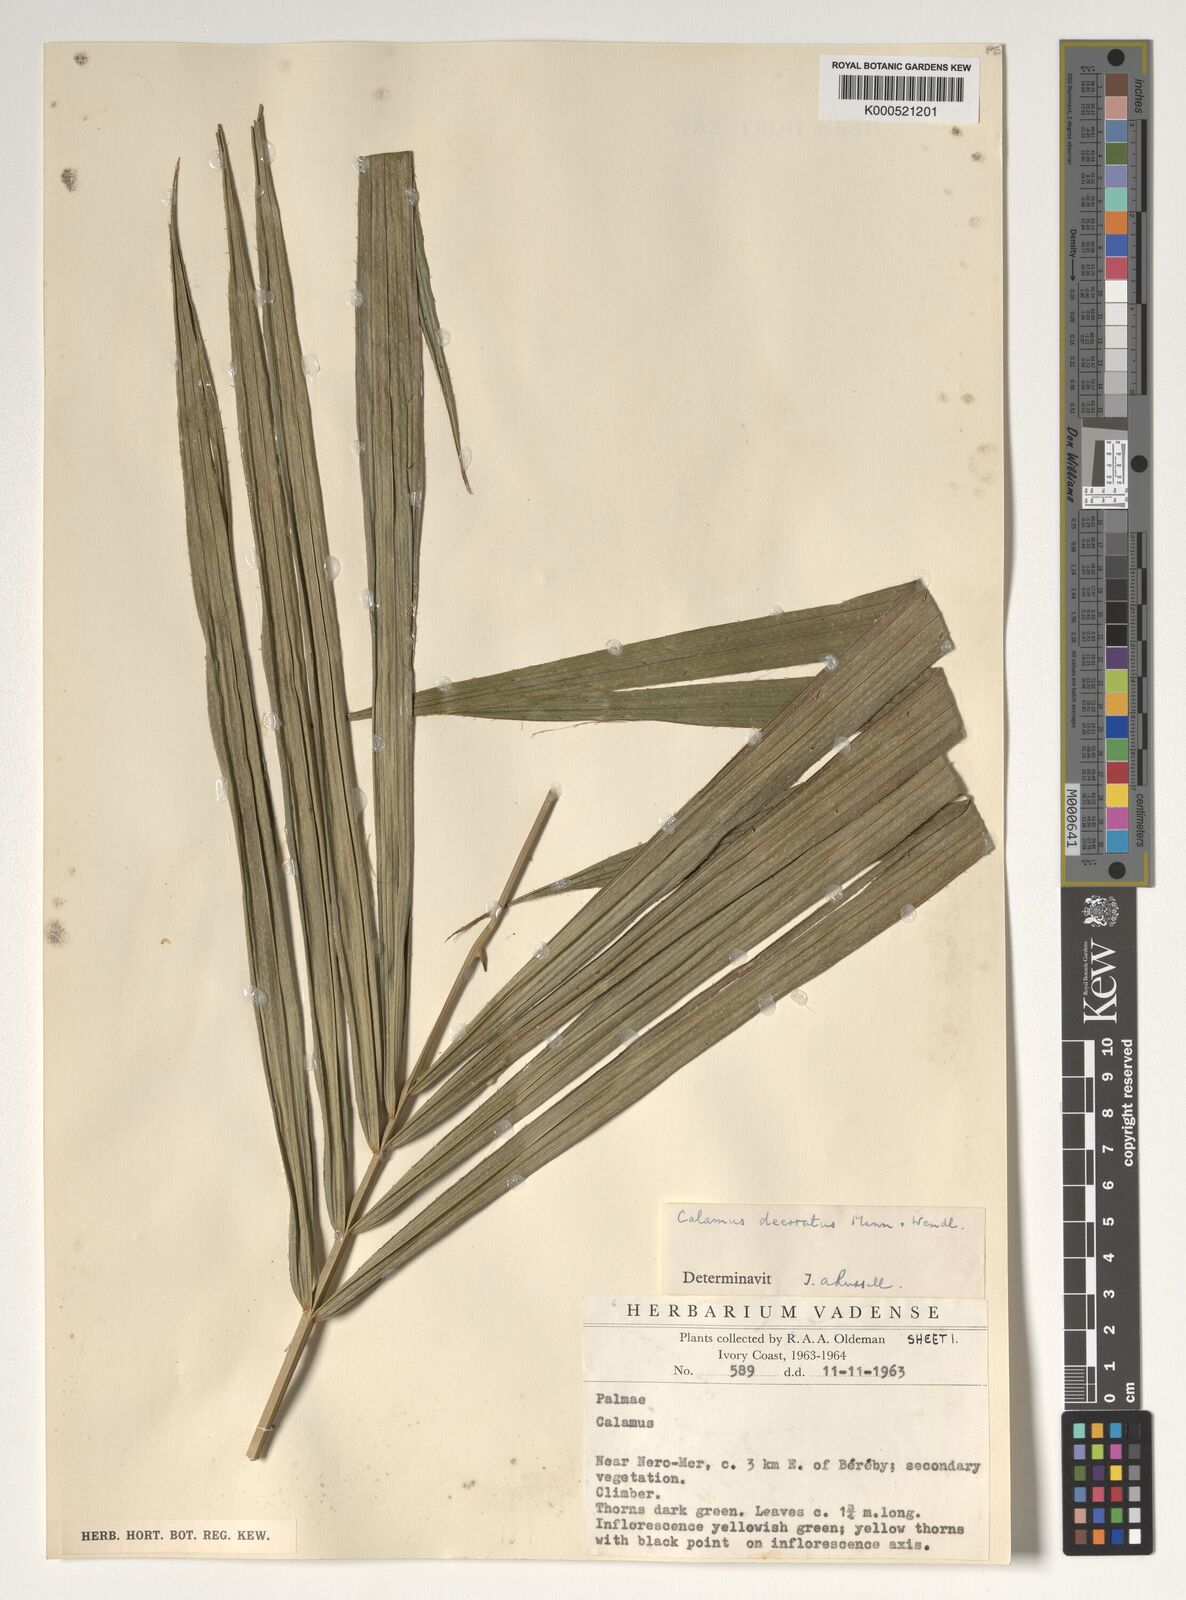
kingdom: Plantae
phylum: Tracheophyta
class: Liliopsida
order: Arecales
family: Arecaceae
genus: Calamus
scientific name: Calamus deerratus
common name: Rattan
